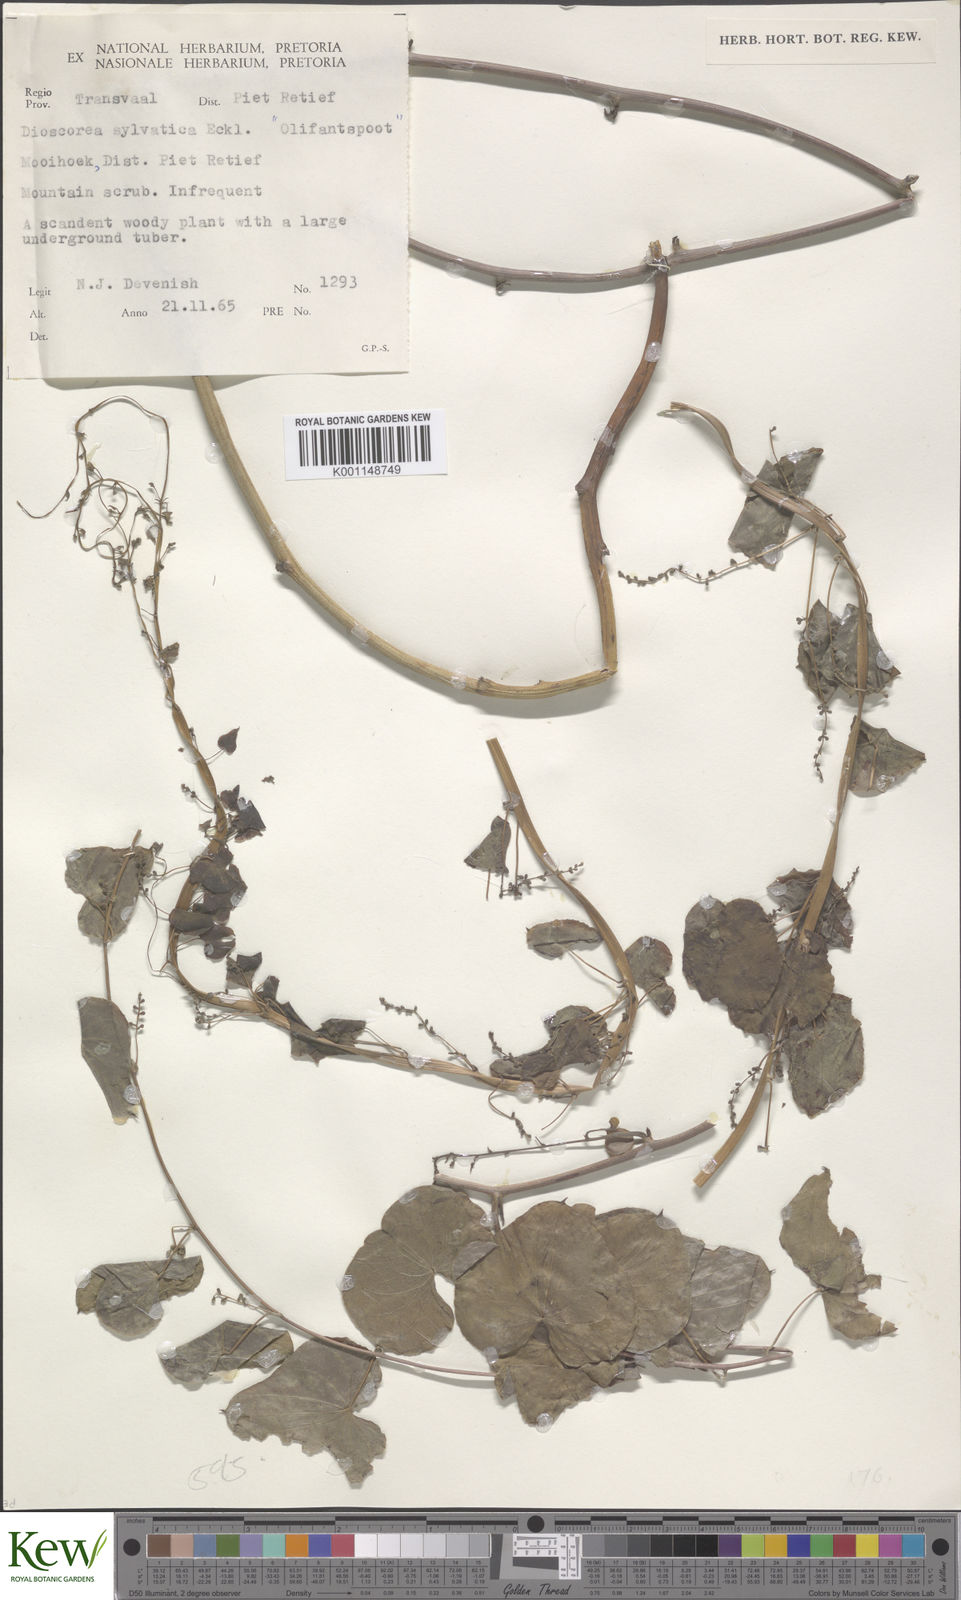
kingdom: Plantae
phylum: Tracheophyta
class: Liliopsida
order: Dioscoreales
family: Dioscoreaceae
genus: Dioscorea
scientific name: Dioscorea sylvatica
